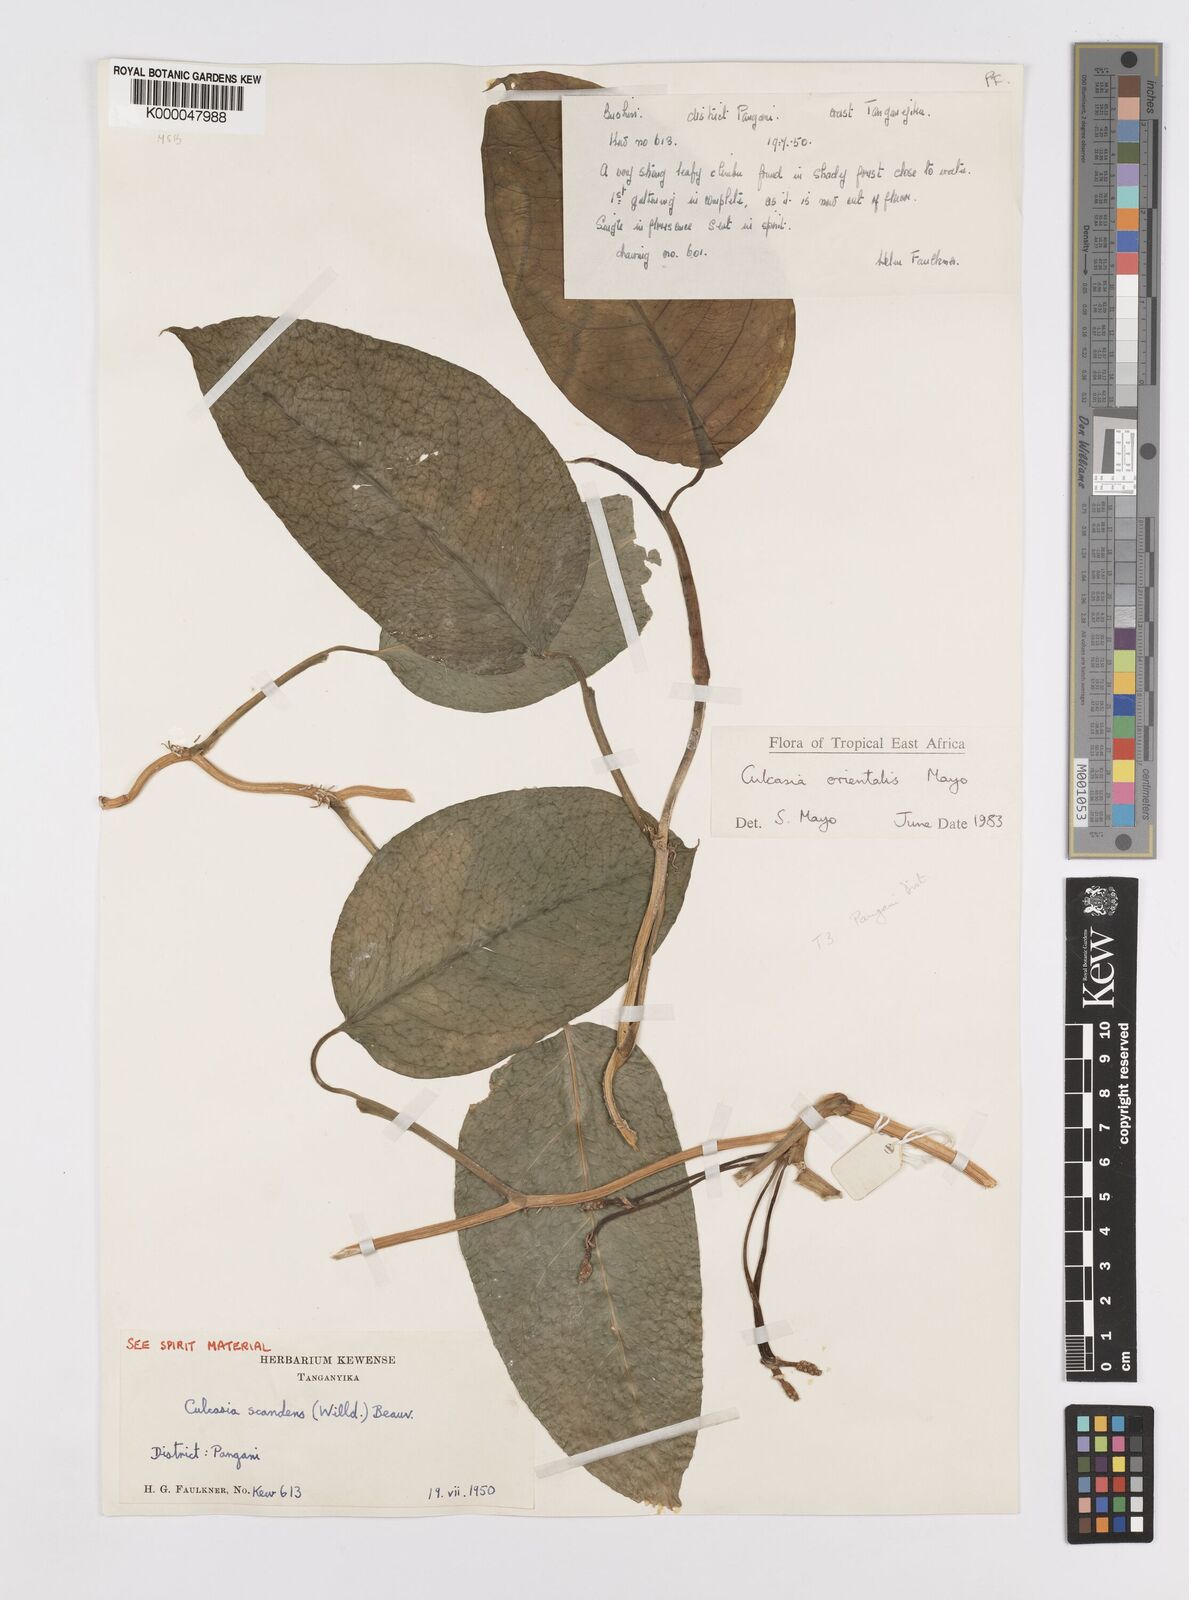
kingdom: Plantae
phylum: Tracheophyta
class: Liliopsida
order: Alismatales
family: Araceae
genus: Culcasia
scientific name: Culcasia orientalis
